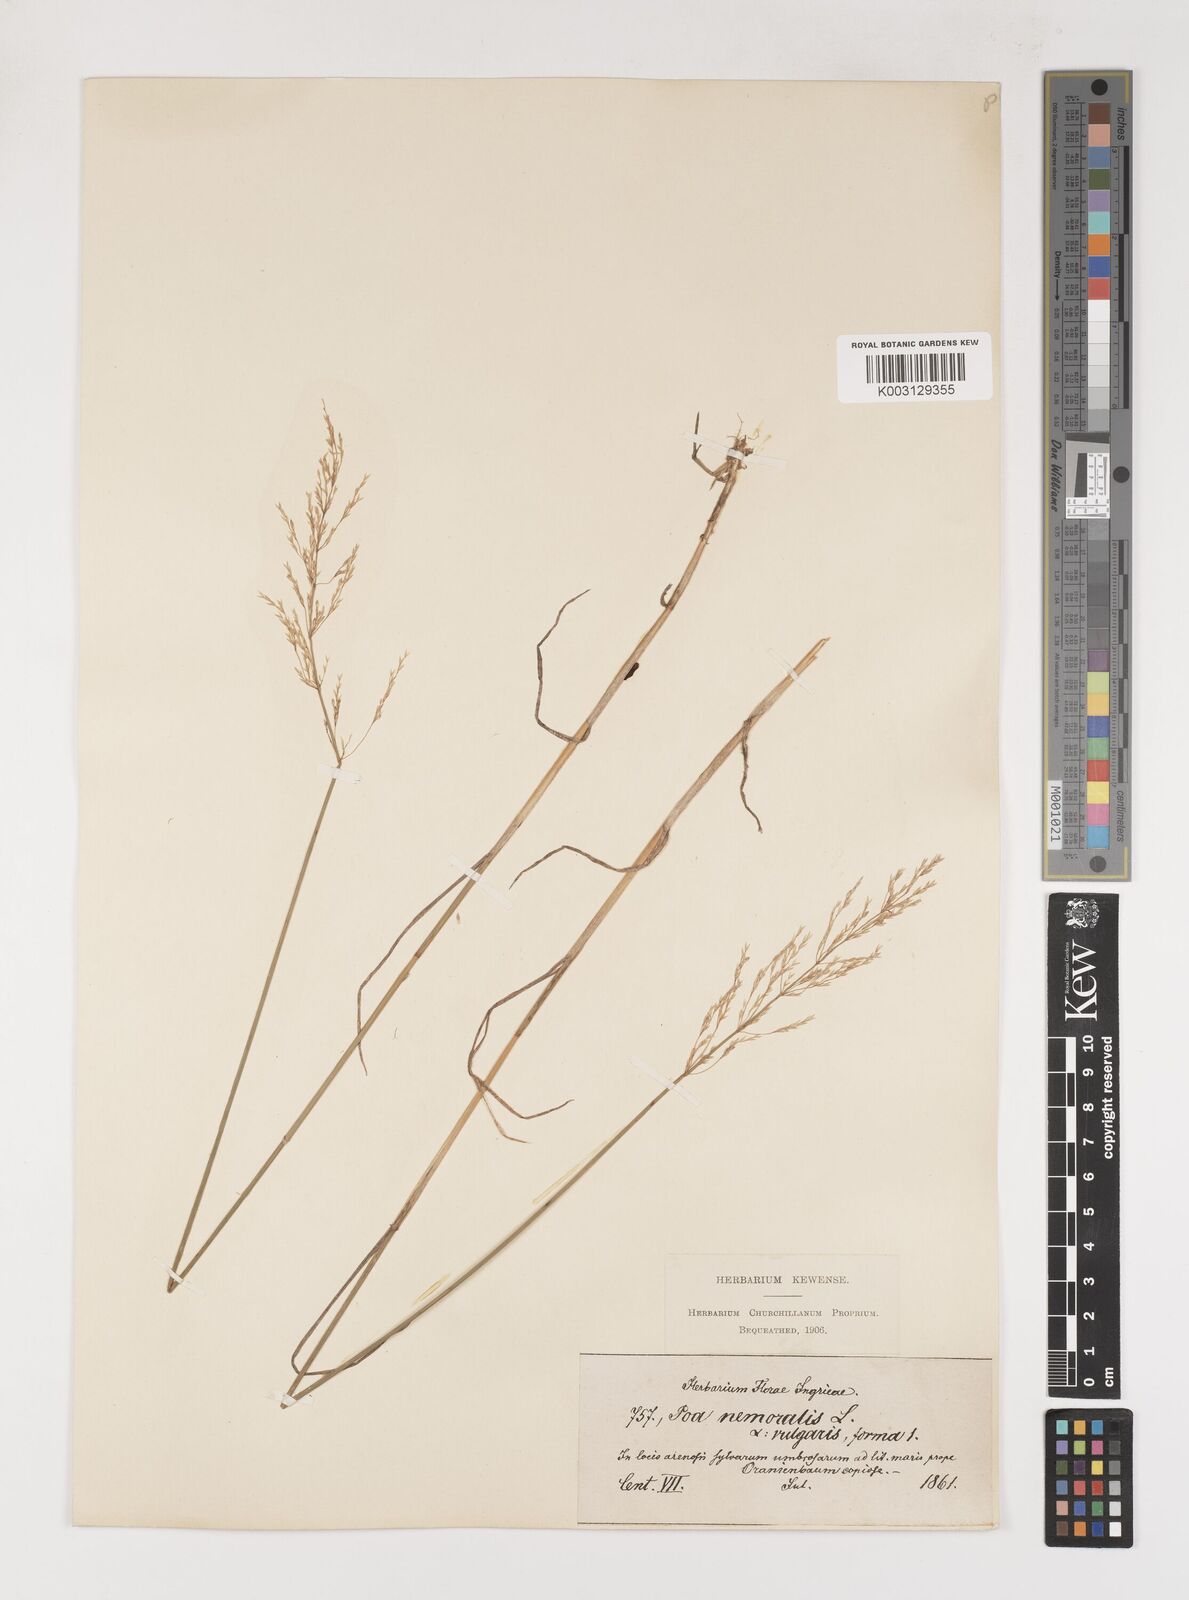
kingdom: Plantae
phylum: Tracheophyta
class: Liliopsida
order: Poales
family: Poaceae
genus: Poa
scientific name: Poa nemoralis
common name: Wood bluegrass
